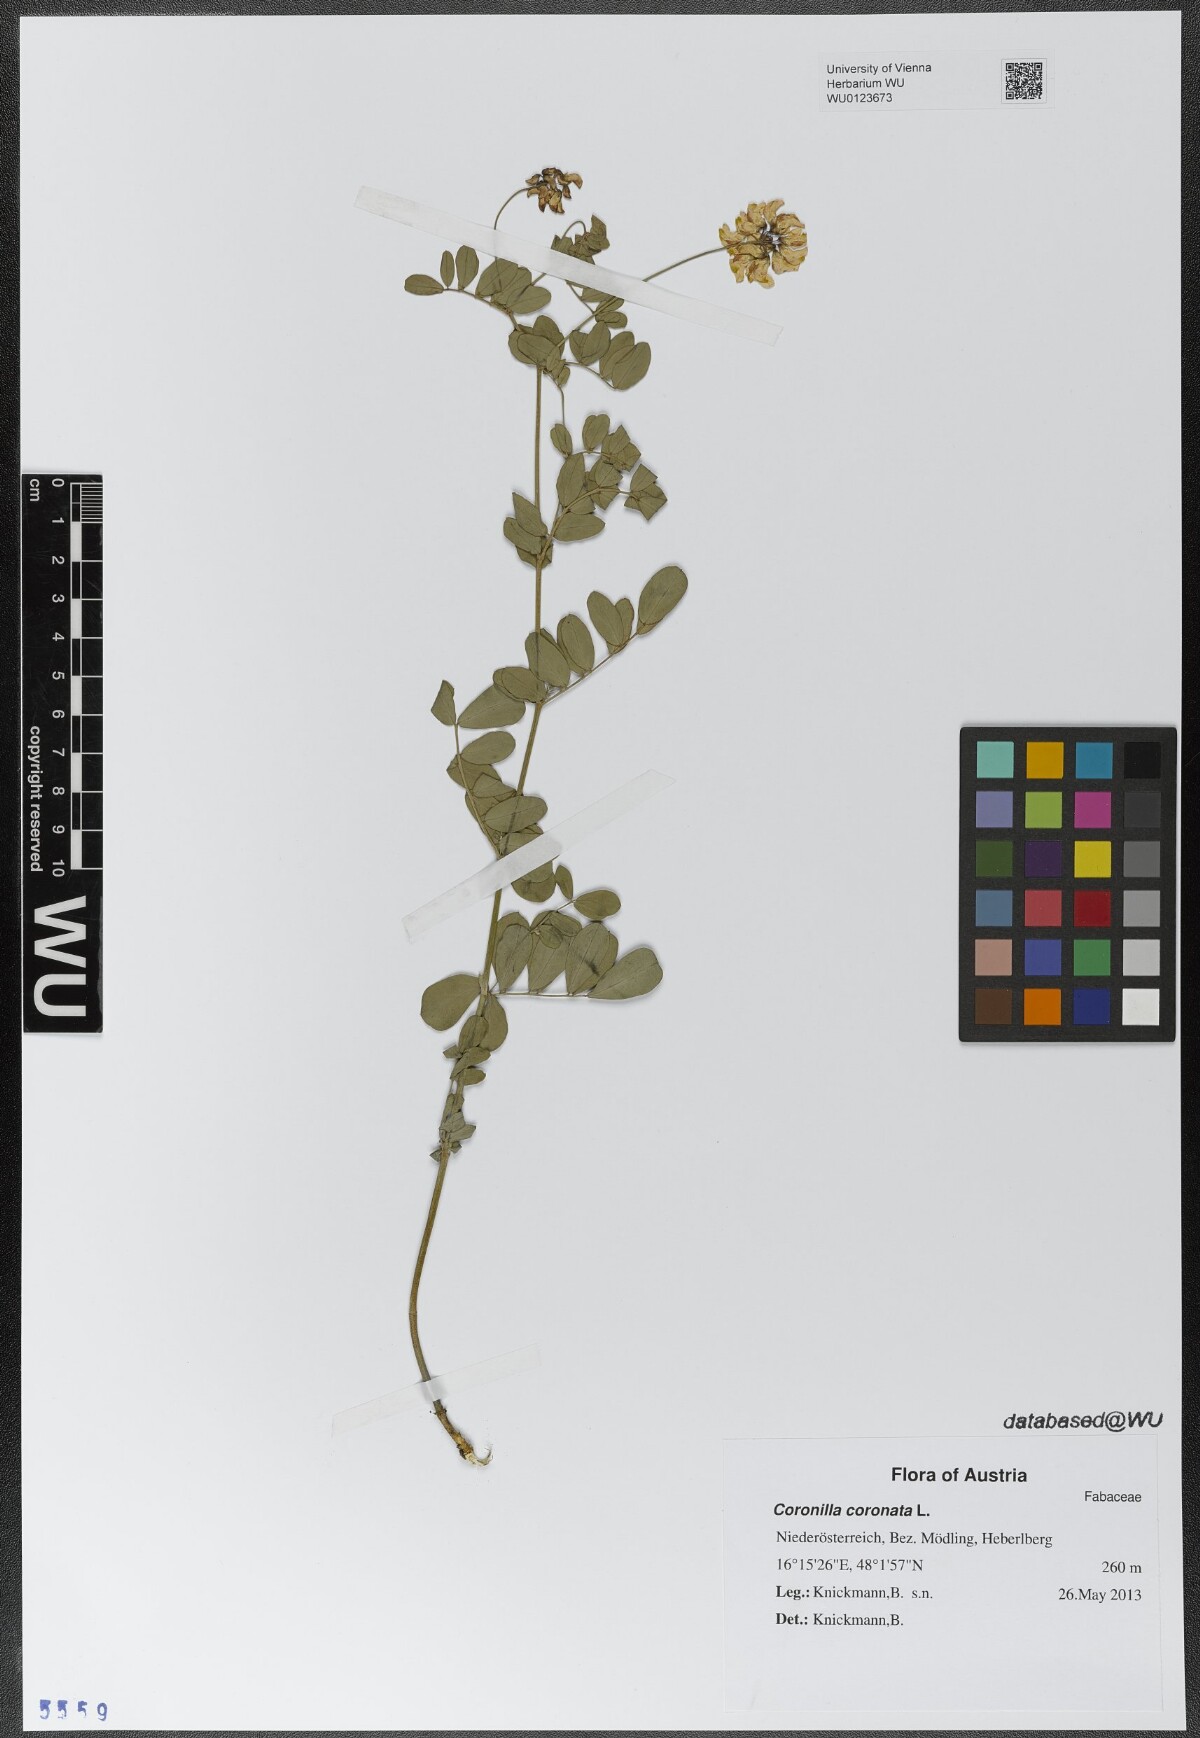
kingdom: Plantae
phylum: Tracheophyta
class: Magnoliopsida
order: Fabales
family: Fabaceae
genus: Coronilla
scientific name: Coronilla coronata
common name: Scorpion-vetch
